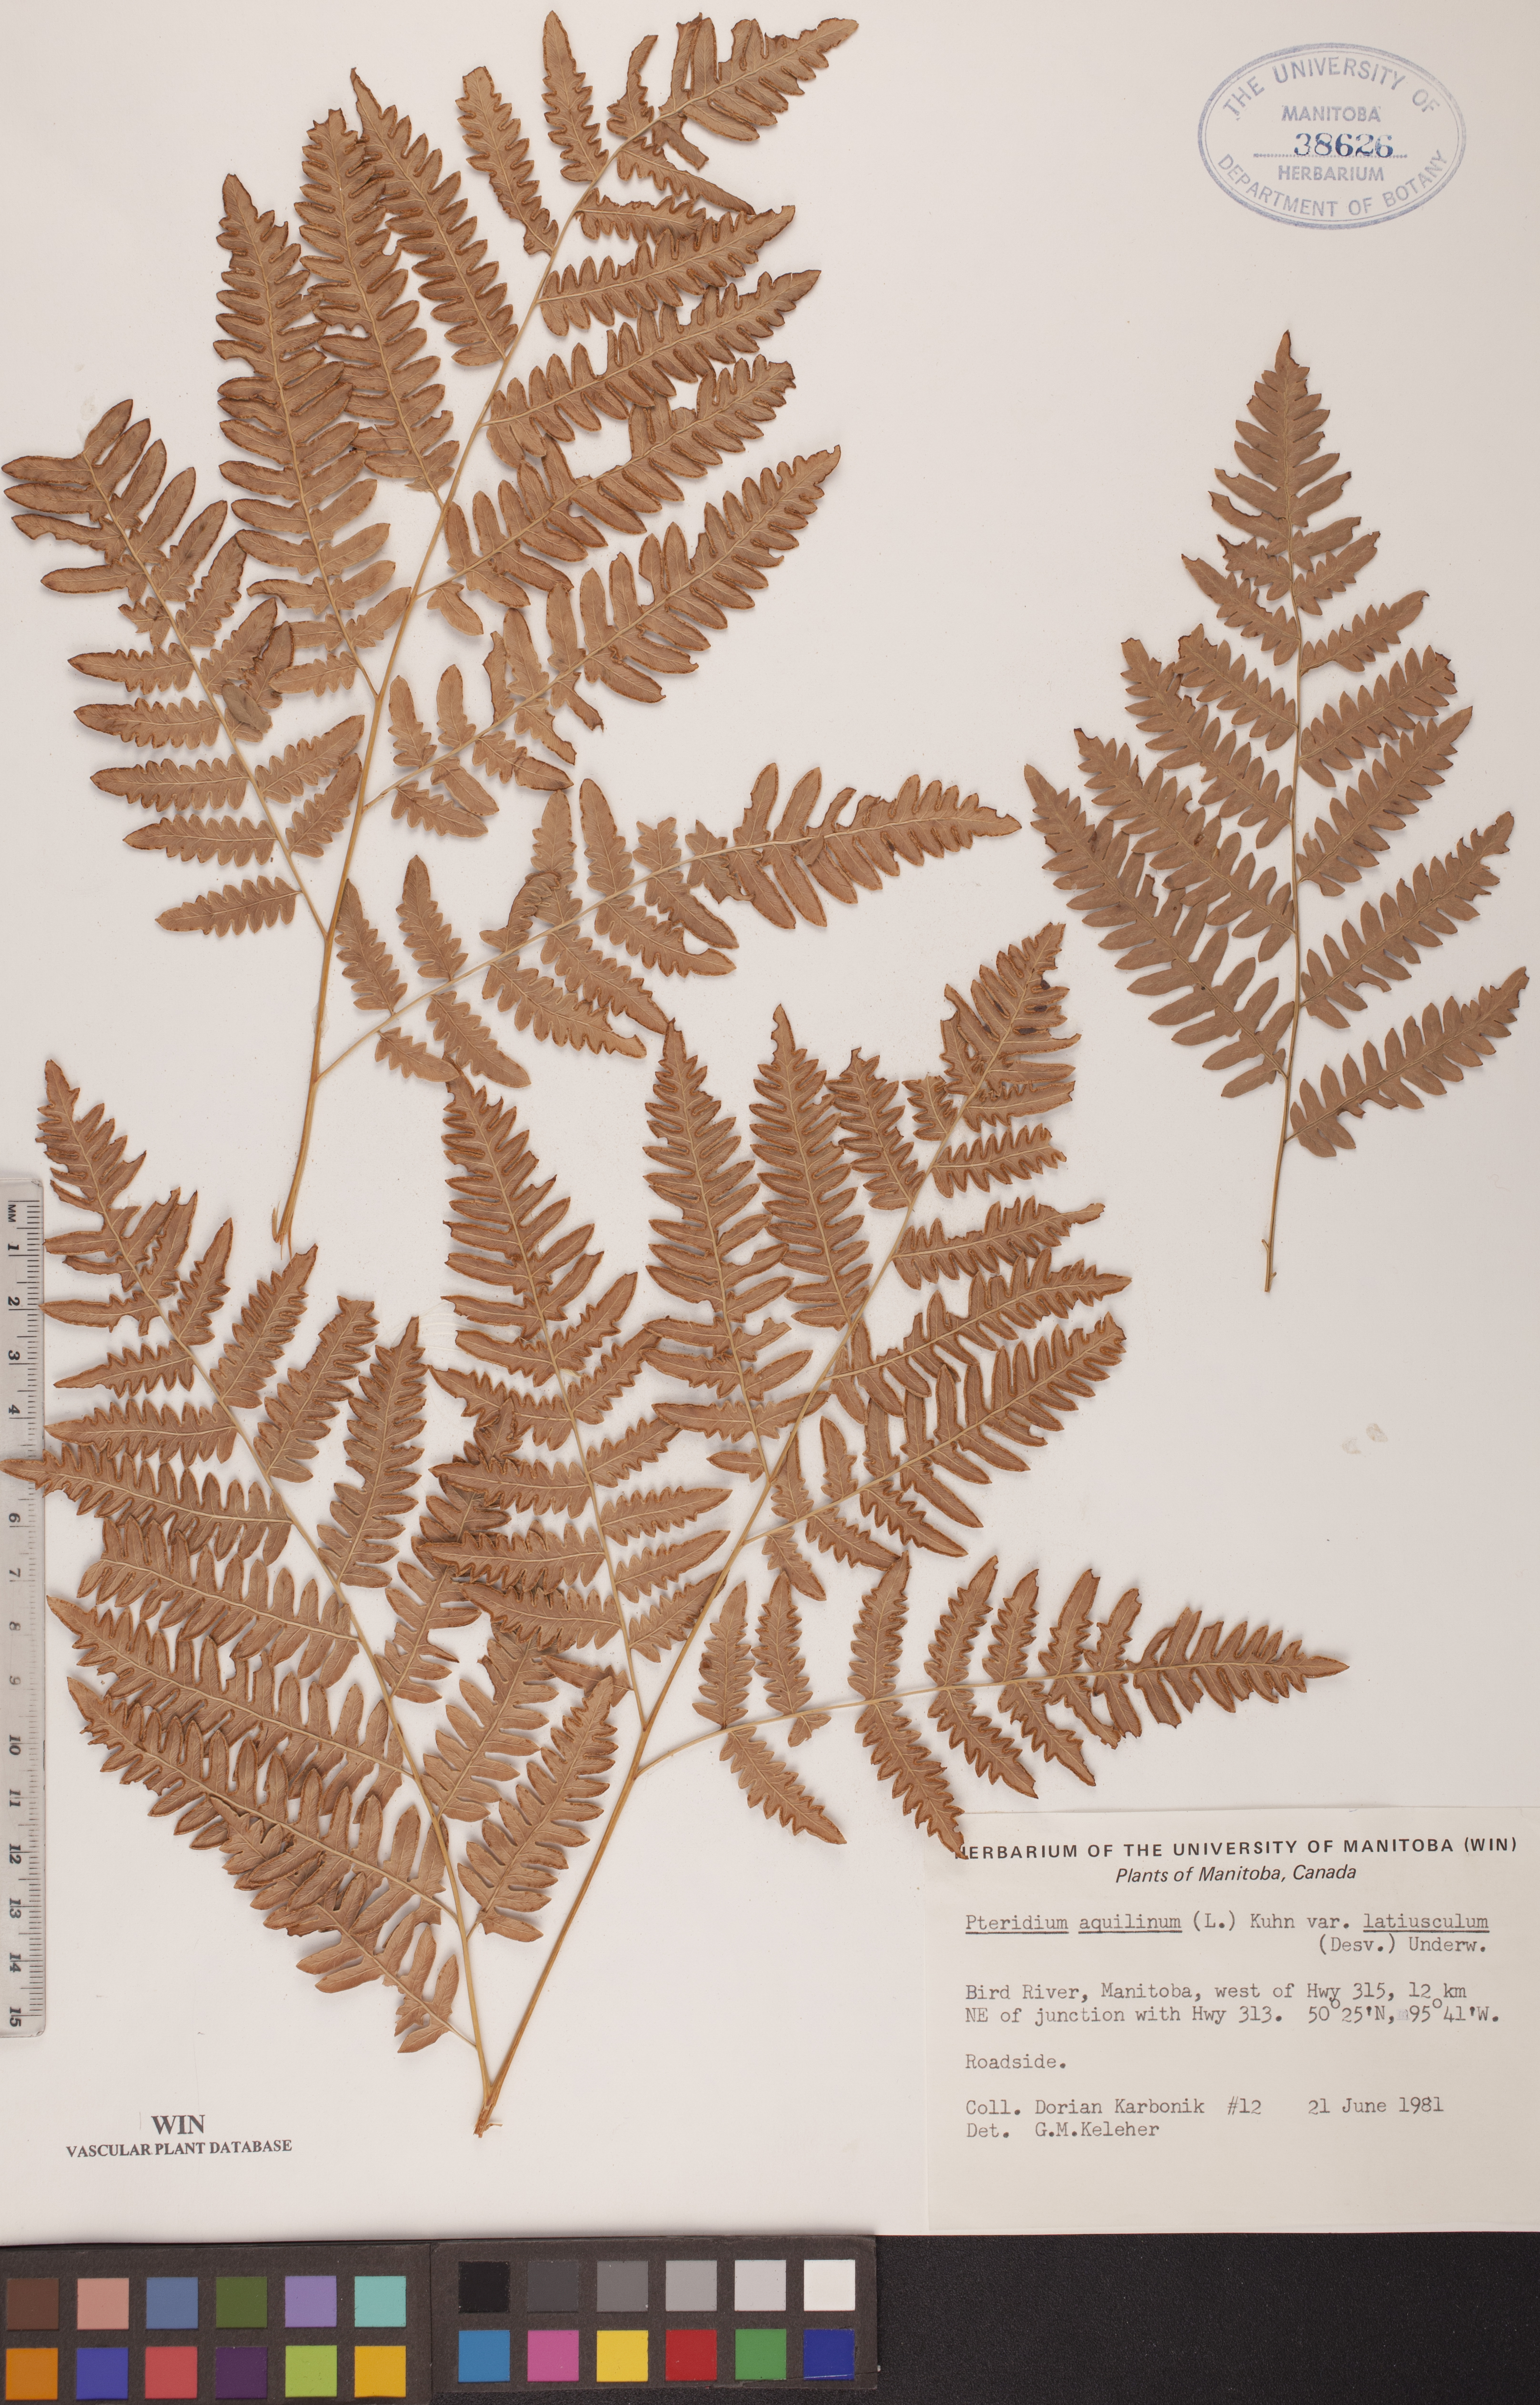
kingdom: Plantae
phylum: Tracheophyta
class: Polypodiopsida
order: Polypodiales
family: Dennstaedtiaceae
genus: Pteridium
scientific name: Pteridium aquilinum
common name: Bracken
